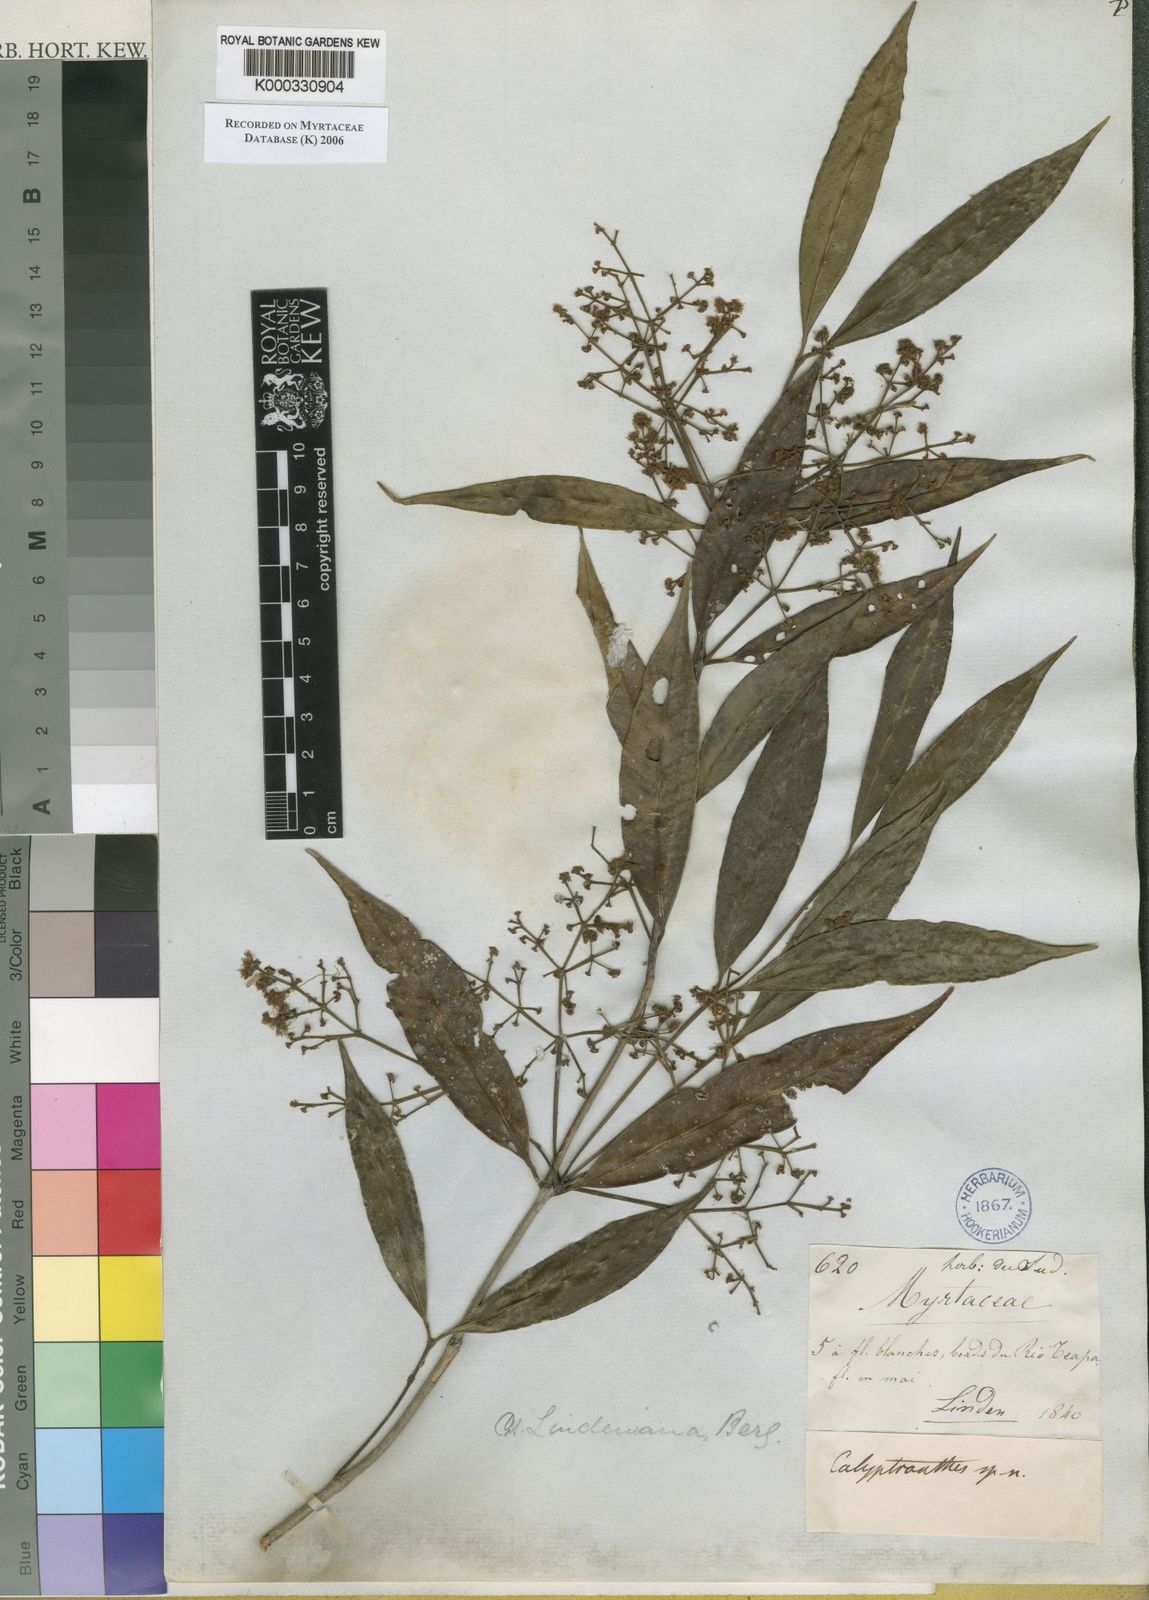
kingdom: Plantae
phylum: Tracheophyta
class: Magnoliopsida
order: Myrtales
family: Myrtaceae
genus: Myrcia
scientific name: Myrcia neolindeniana
